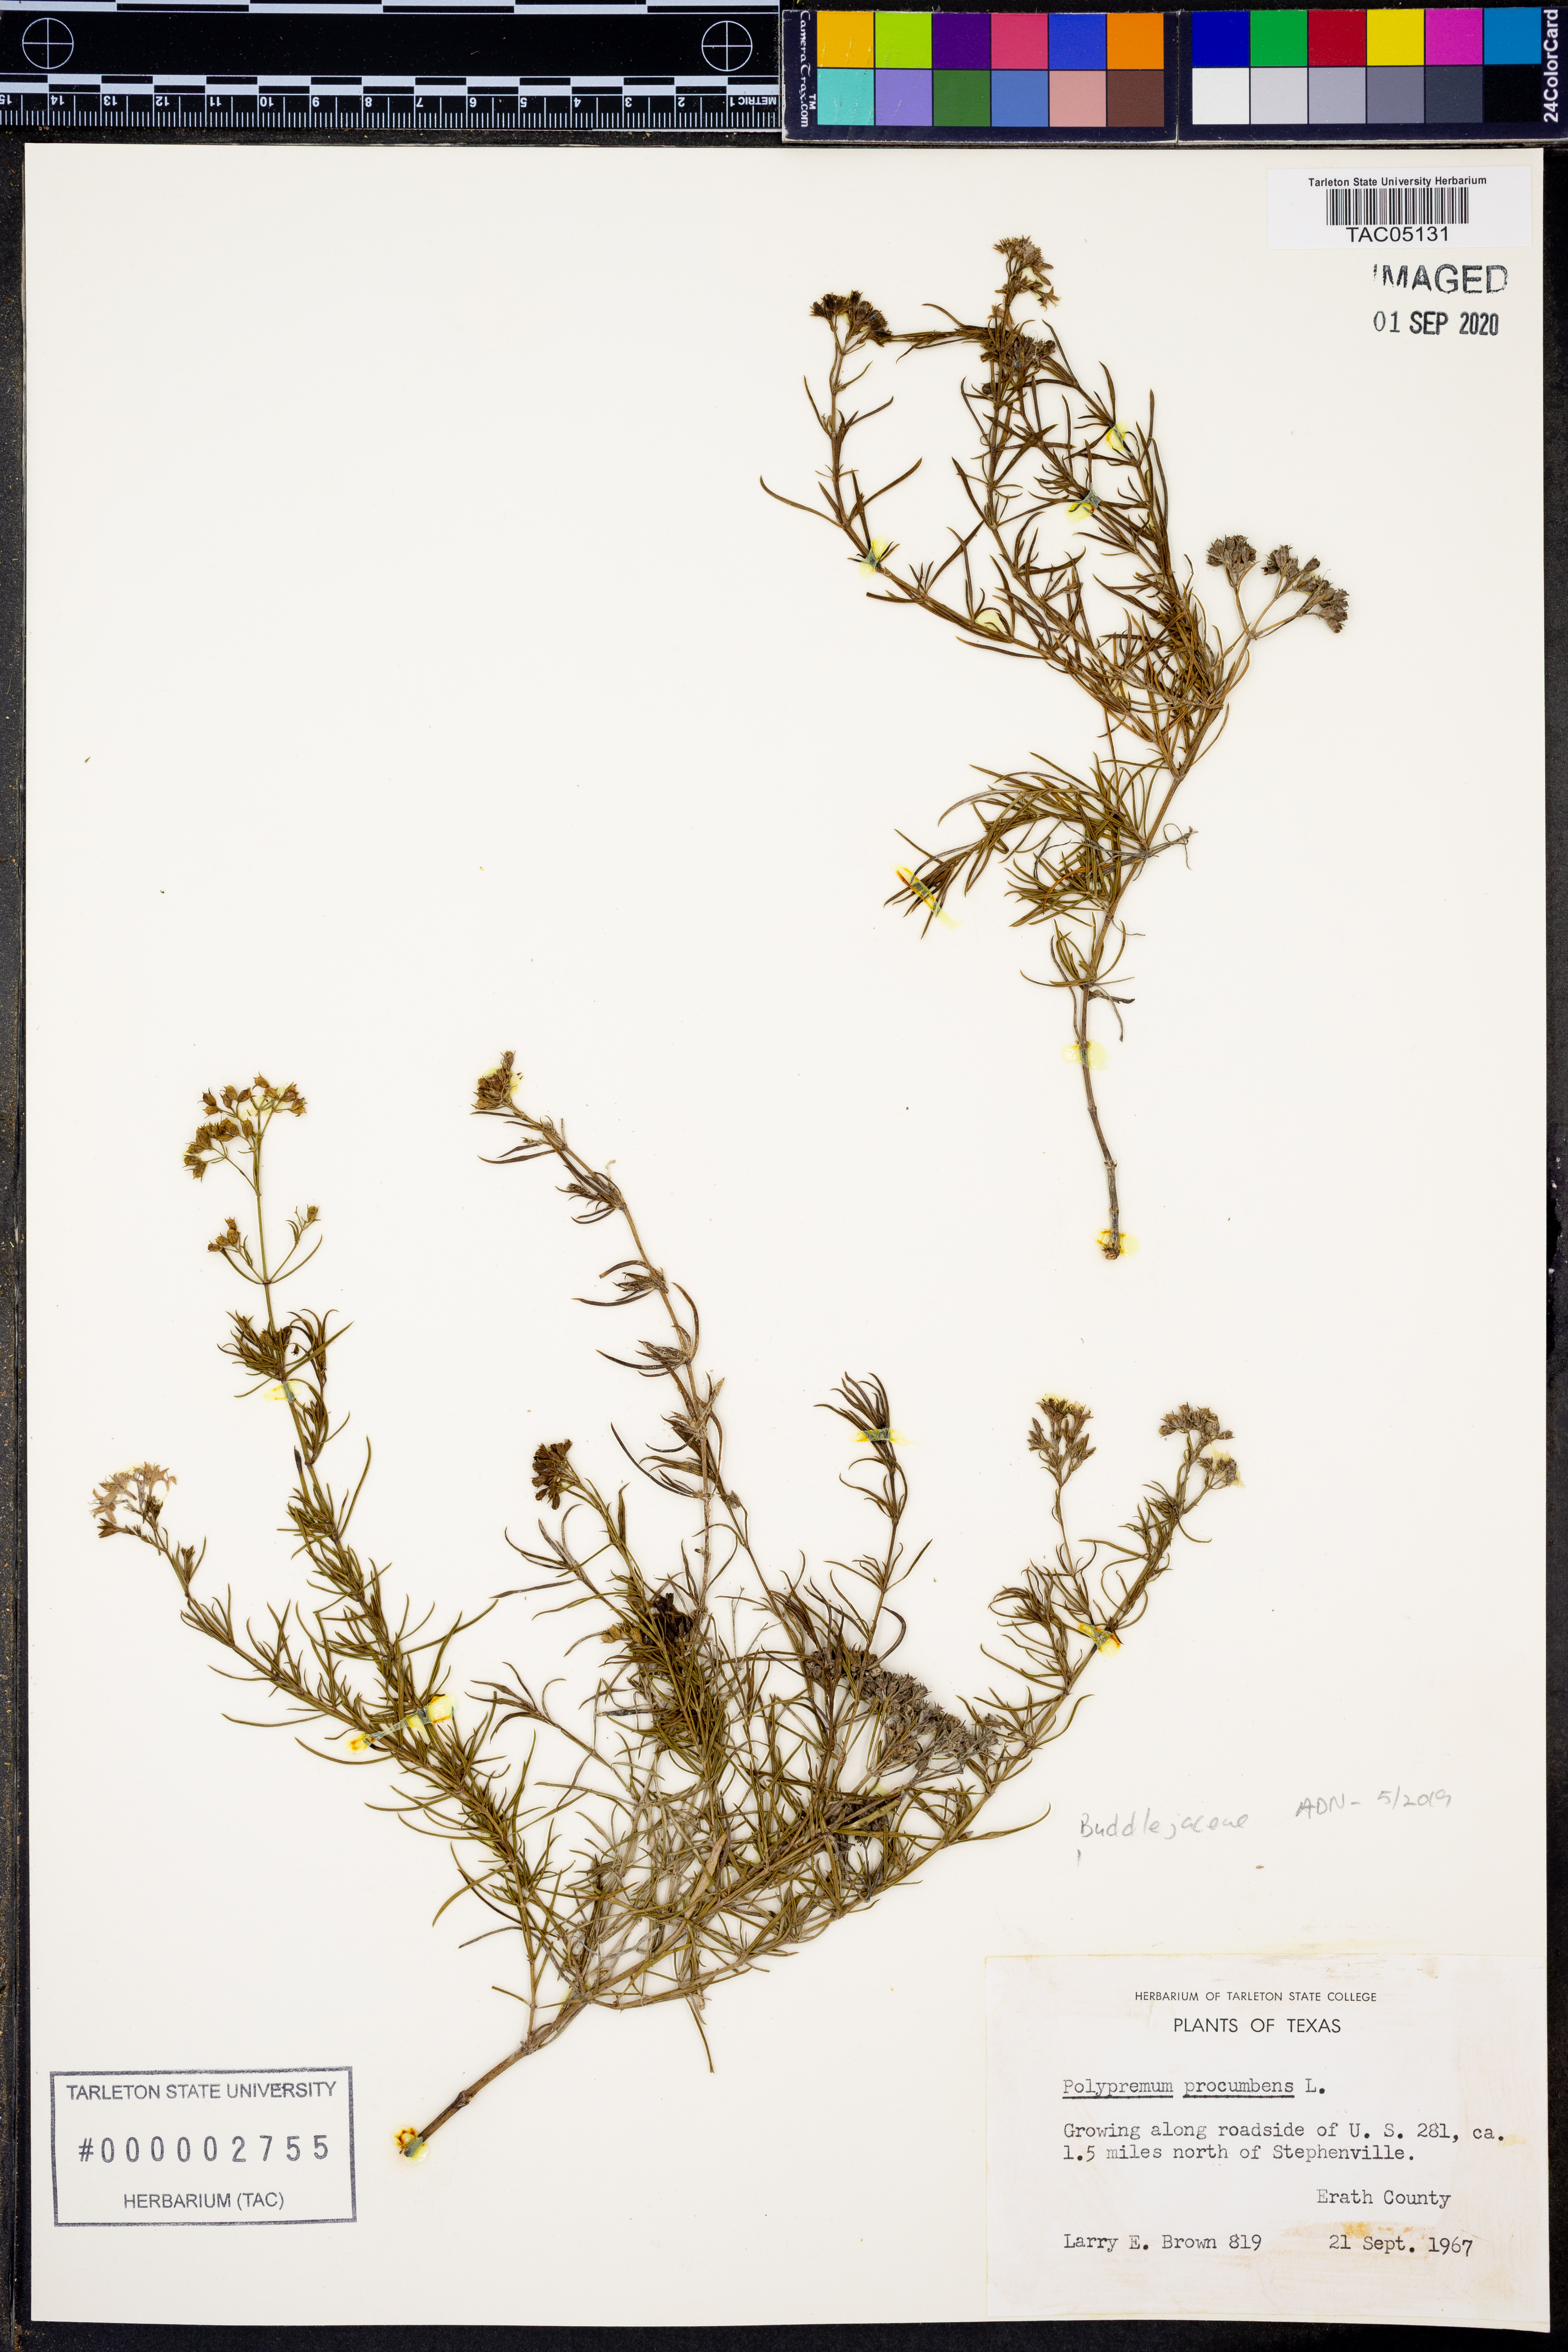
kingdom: Plantae
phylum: Tracheophyta
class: Magnoliopsida
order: Lamiales
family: Tetrachondraceae
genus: Polypremum
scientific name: Polypremum procumbens
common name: Juniper-leaf
